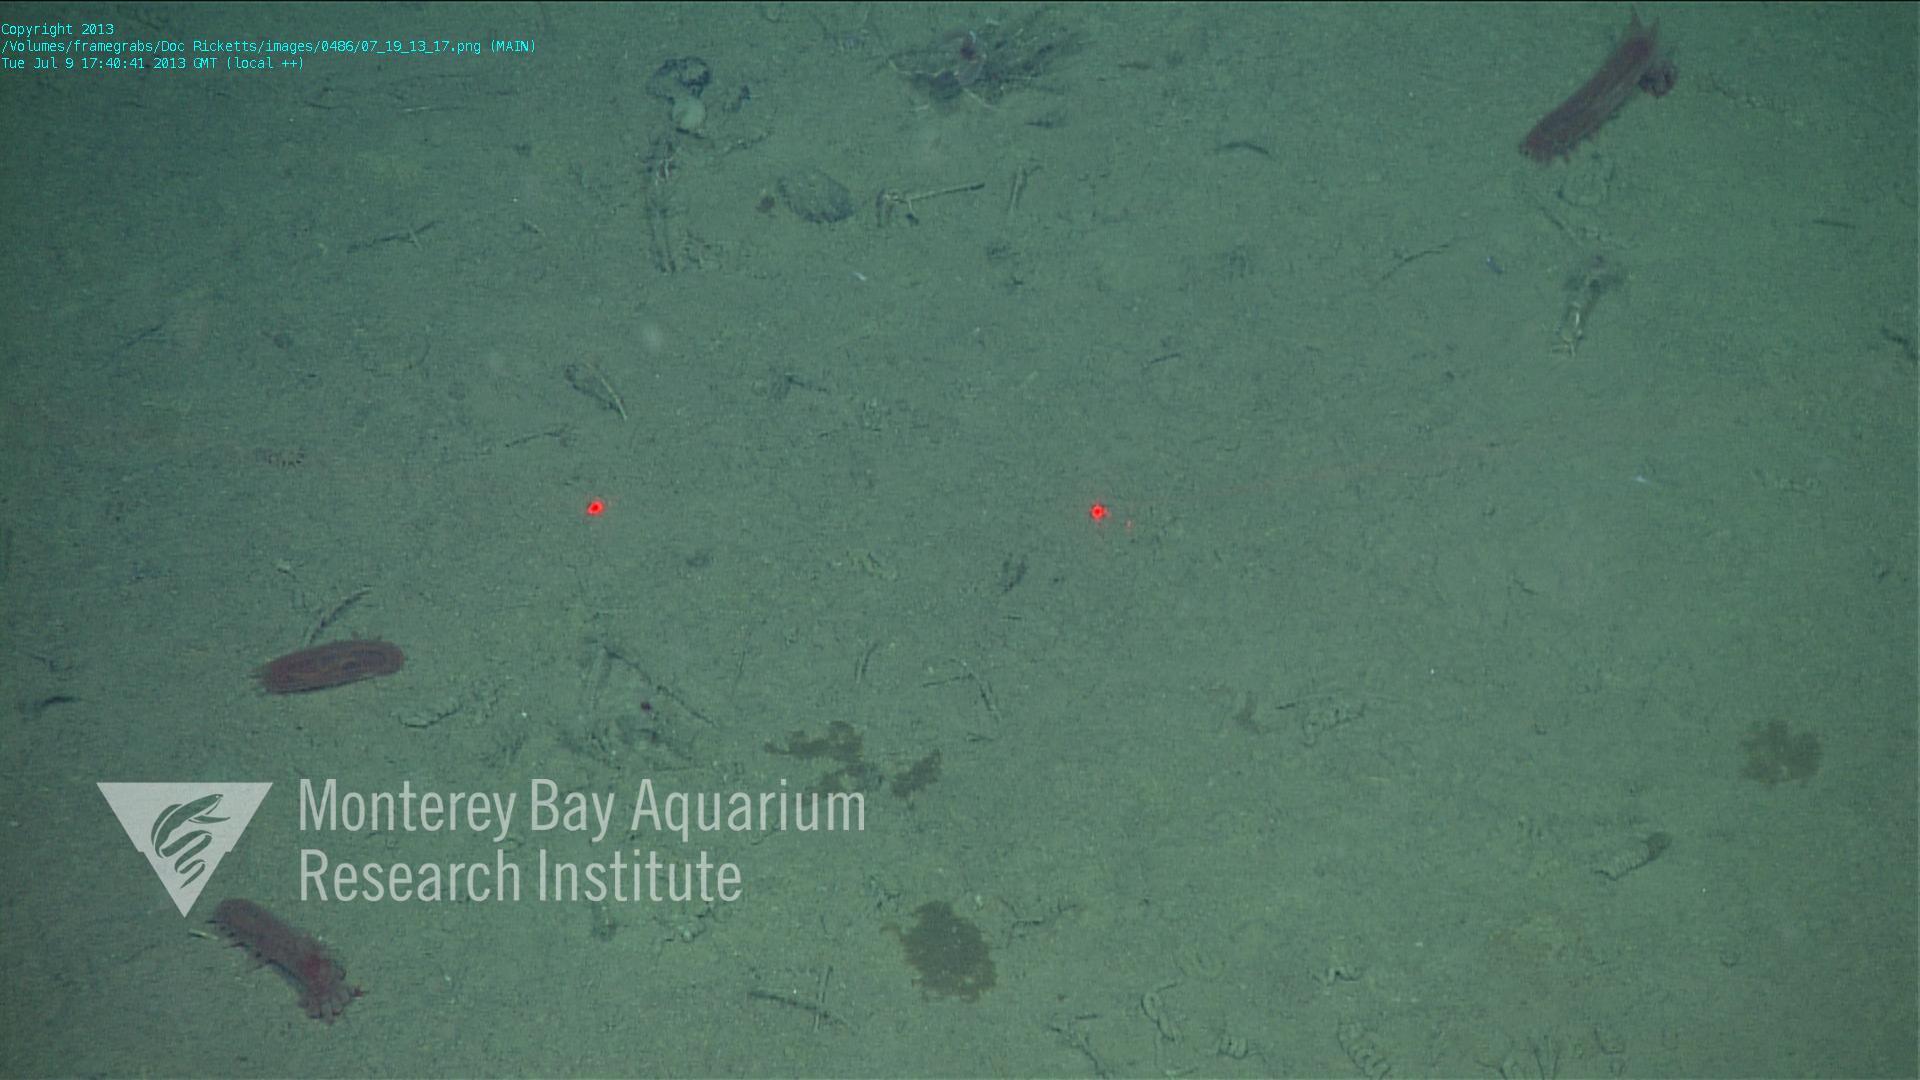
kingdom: Animalia
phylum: Porifera
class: Hexactinellida
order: Lyssacinosida
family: Rossellidae
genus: Bathydorus
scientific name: Bathydorus spinosus
